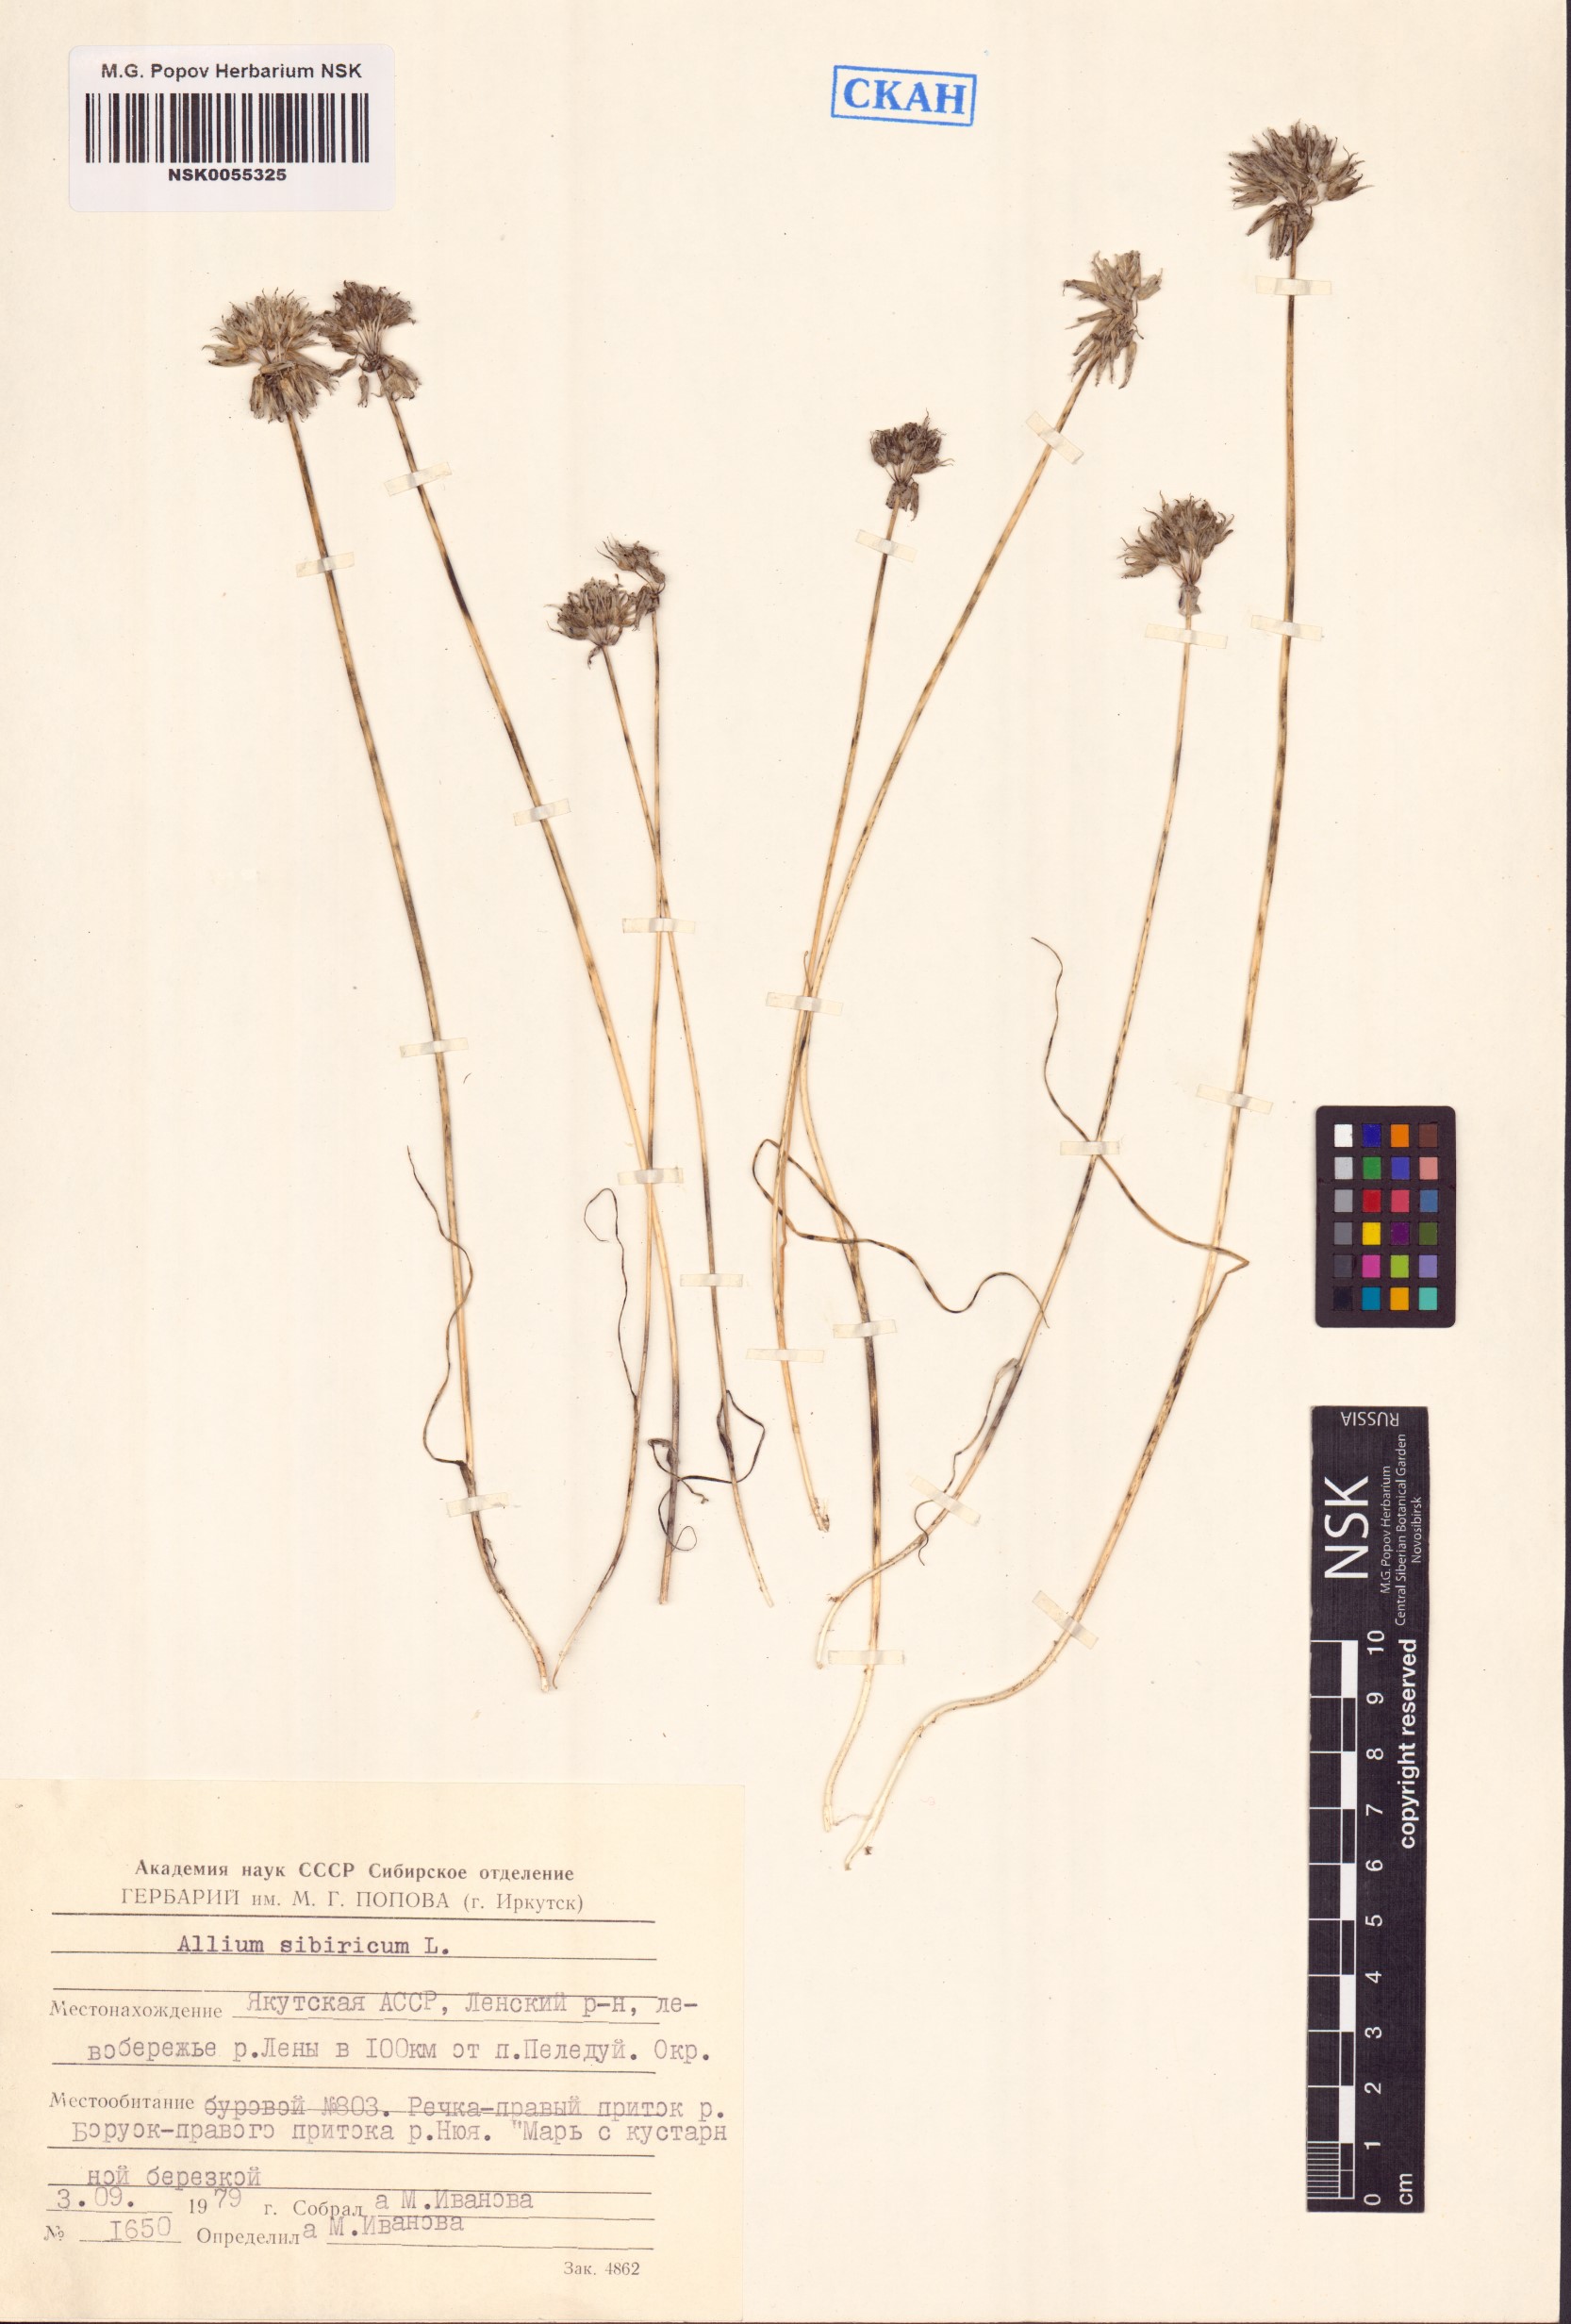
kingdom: Plantae
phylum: Tracheophyta
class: Liliopsida
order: Asparagales
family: Amaryllidaceae
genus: Allium
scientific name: Allium schoenoprasum
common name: Chives
